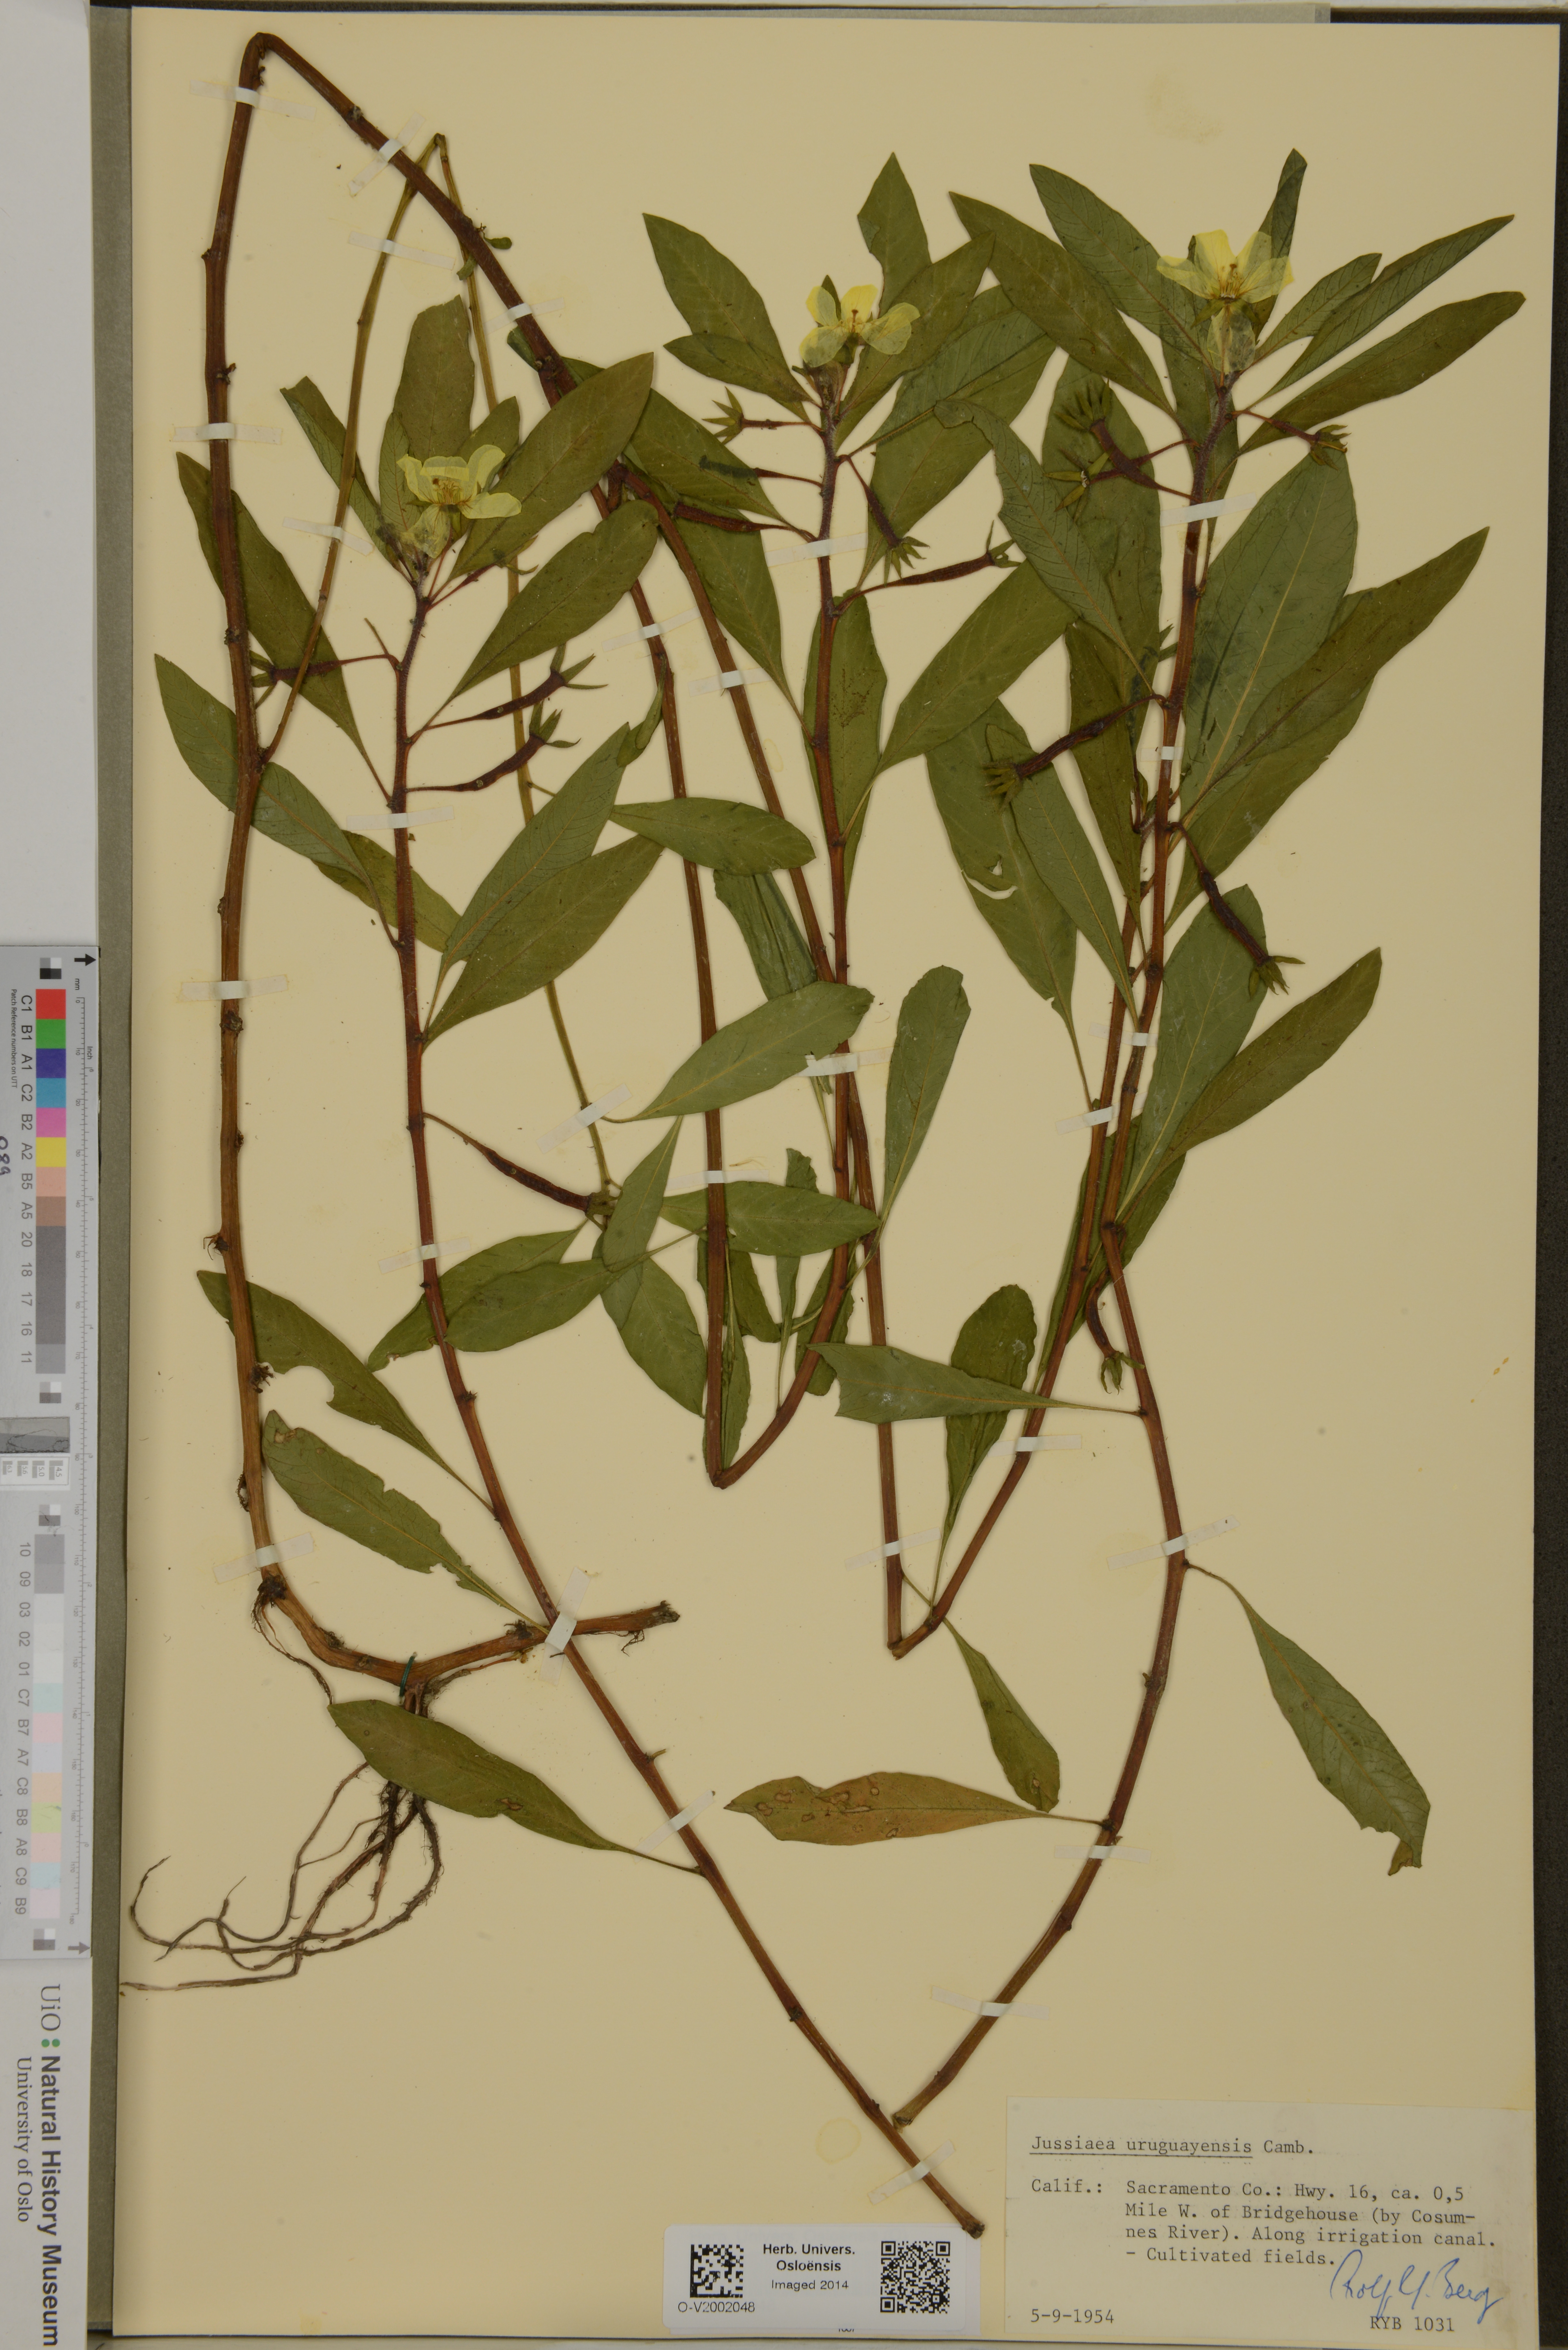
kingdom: Plantae
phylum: Tracheophyta
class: Magnoliopsida
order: Myrtales
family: Onagraceae
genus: Ludwigia
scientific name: Ludwigia grandiflora
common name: Water primrose
